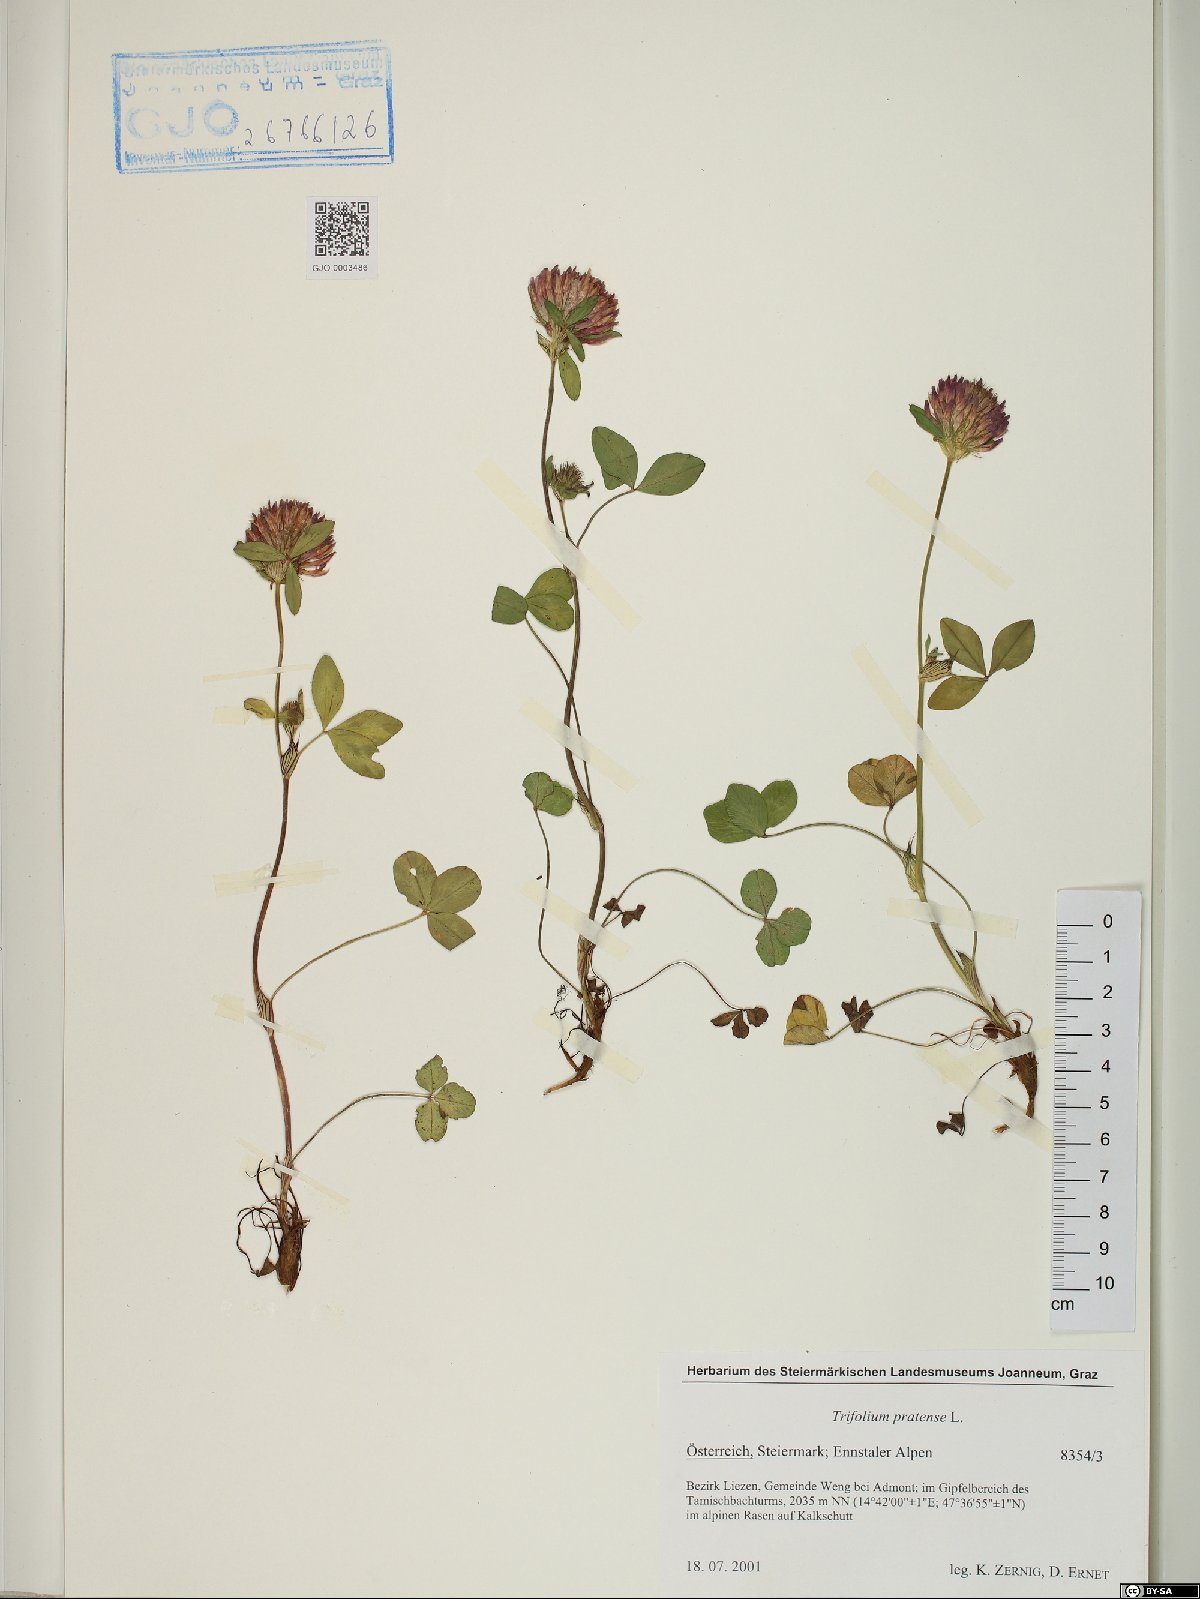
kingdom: Plantae
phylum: Tracheophyta
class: Magnoliopsida
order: Fabales
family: Fabaceae
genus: Trifolium
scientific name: Trifolium pratense
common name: Red clover
